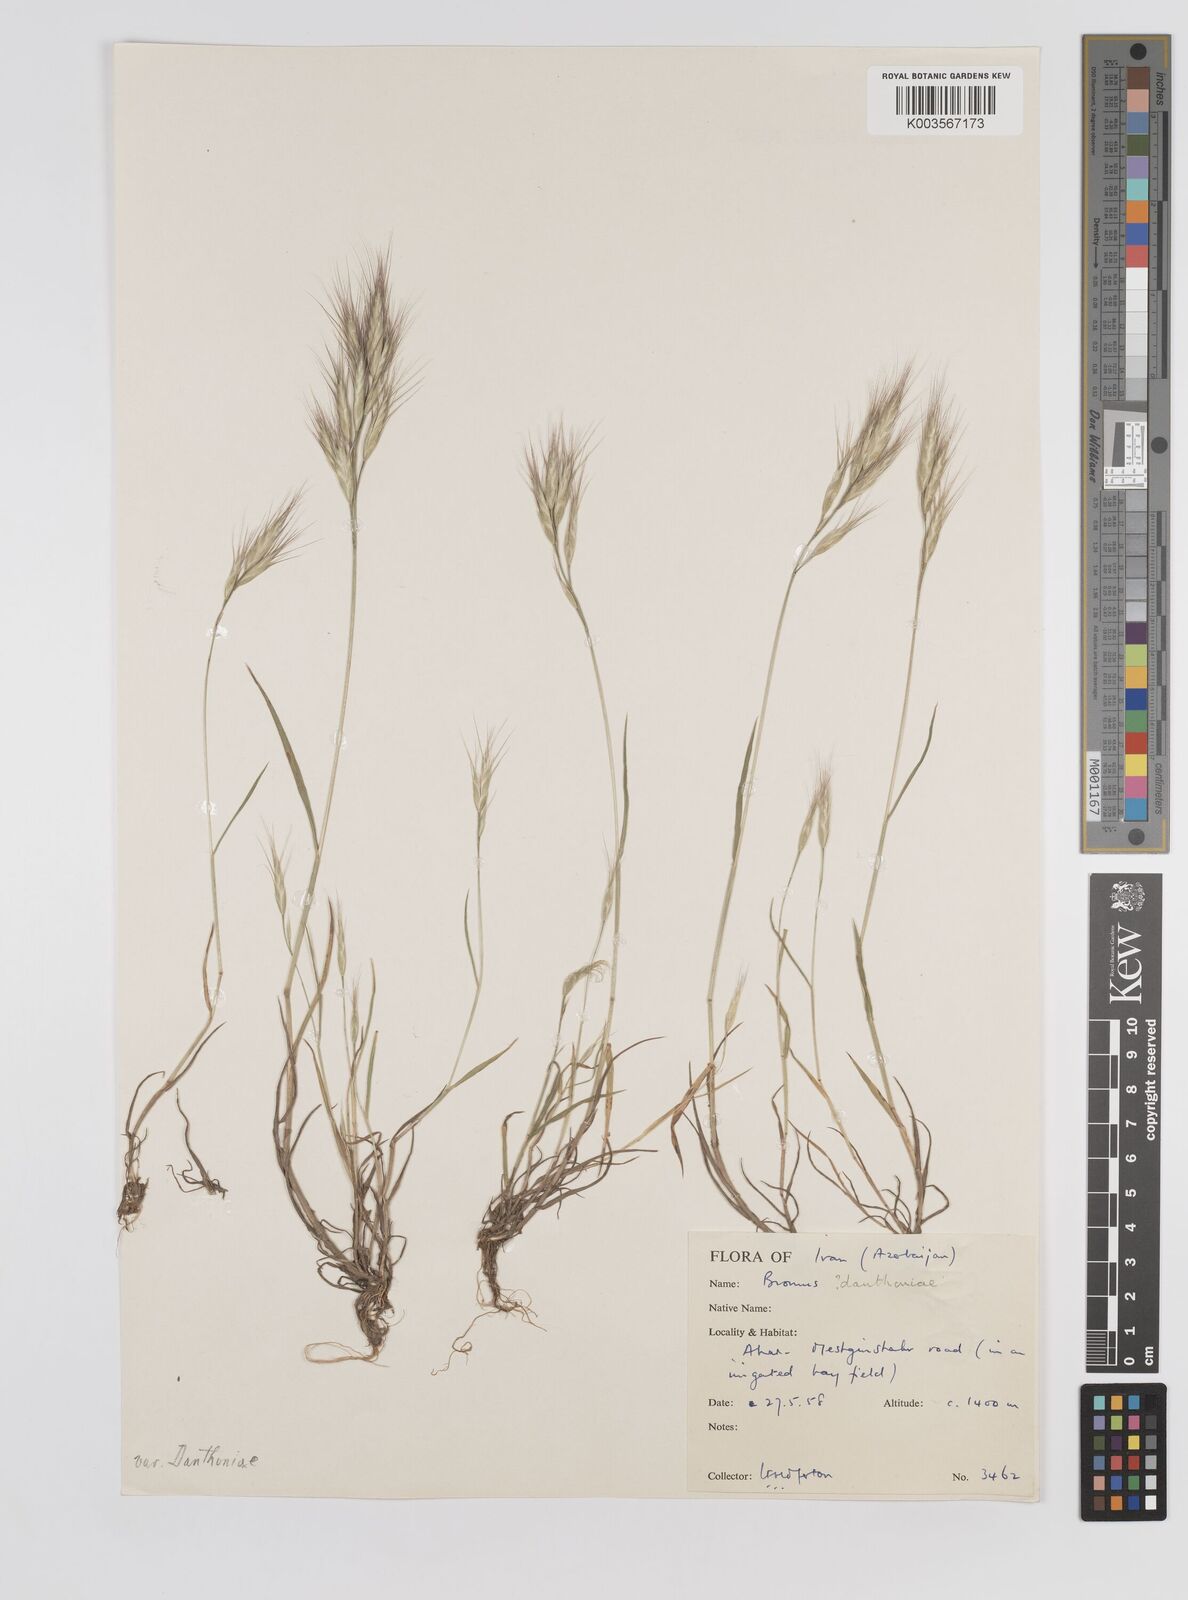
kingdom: Plantae
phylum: Tracheophyta
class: Liliopsida
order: Poales
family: Poaceae
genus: Bromus
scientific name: Bromus danthoniae
